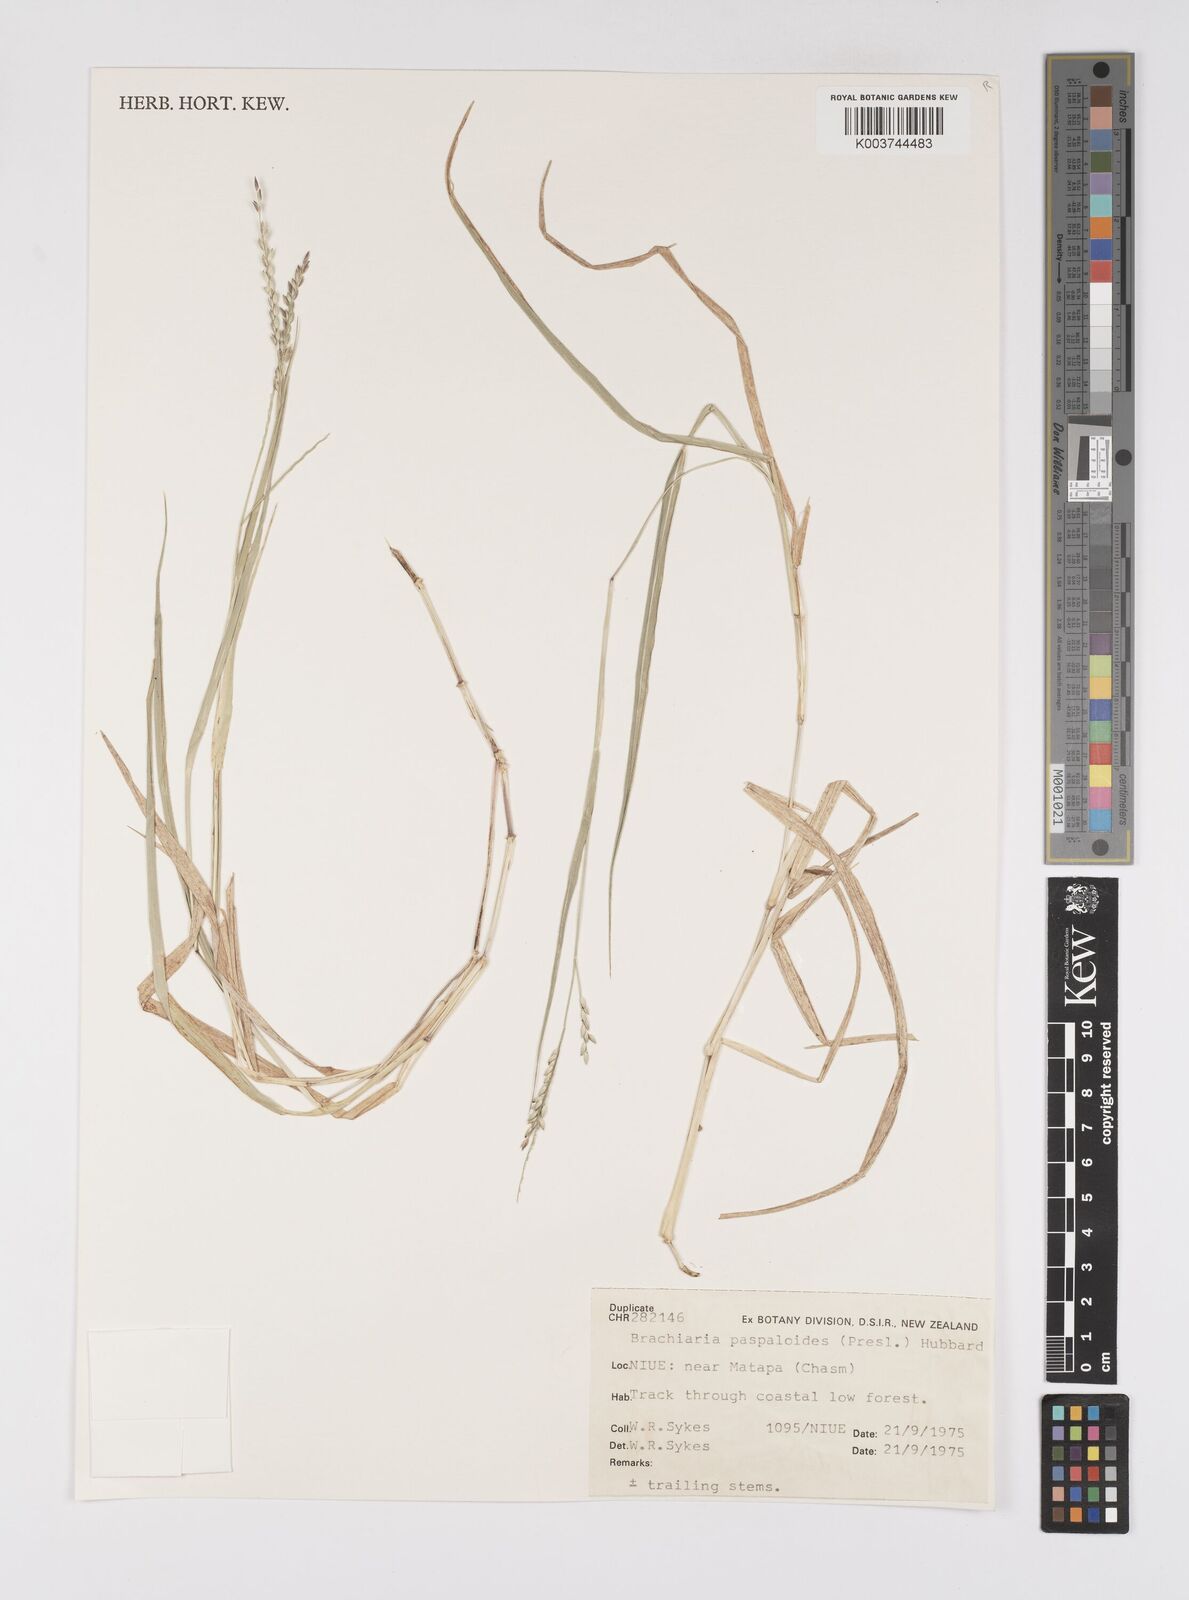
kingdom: Plantae
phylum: Tracheophyta
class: Liliopsida
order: Poales
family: Poaceae
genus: Urochloa
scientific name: Urochloa glumaris
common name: Thurston grass
